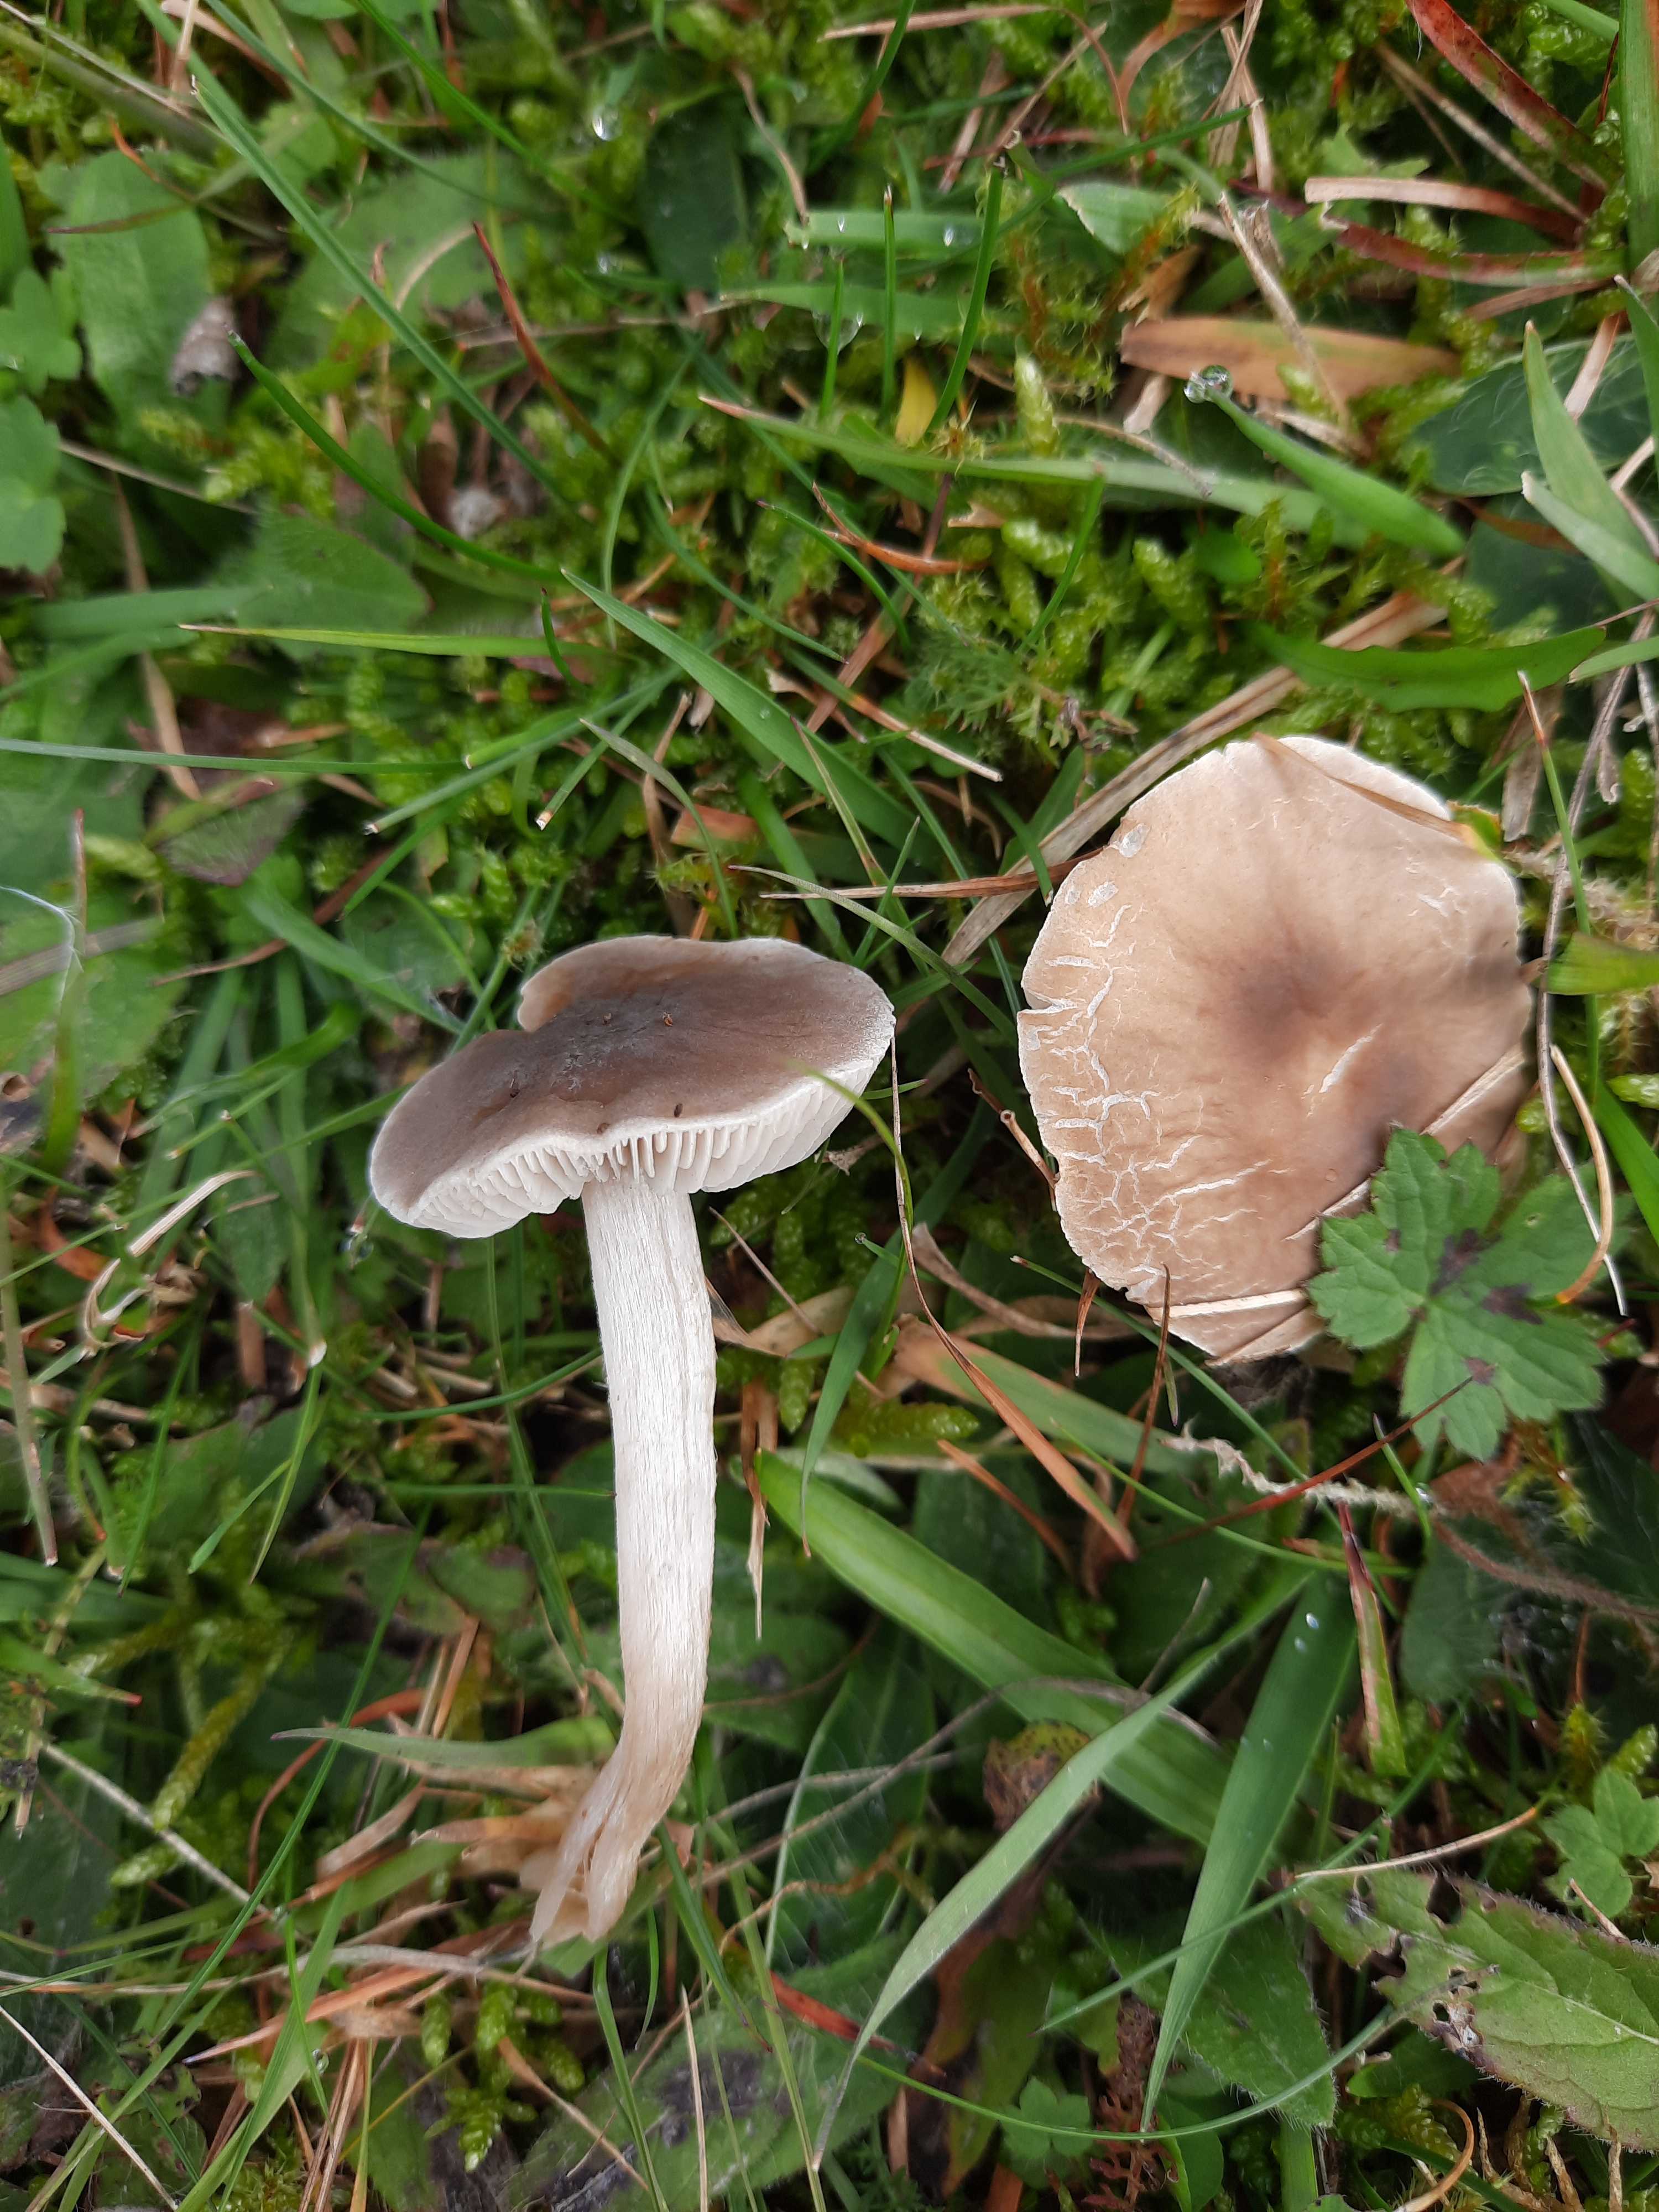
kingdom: Fungi
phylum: Basidiomycota
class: Agaricomycetes
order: Agaricales
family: Tricholomataceae
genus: Dermoloma
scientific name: Dermoloma cuneifolium
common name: eng-nonnehat
